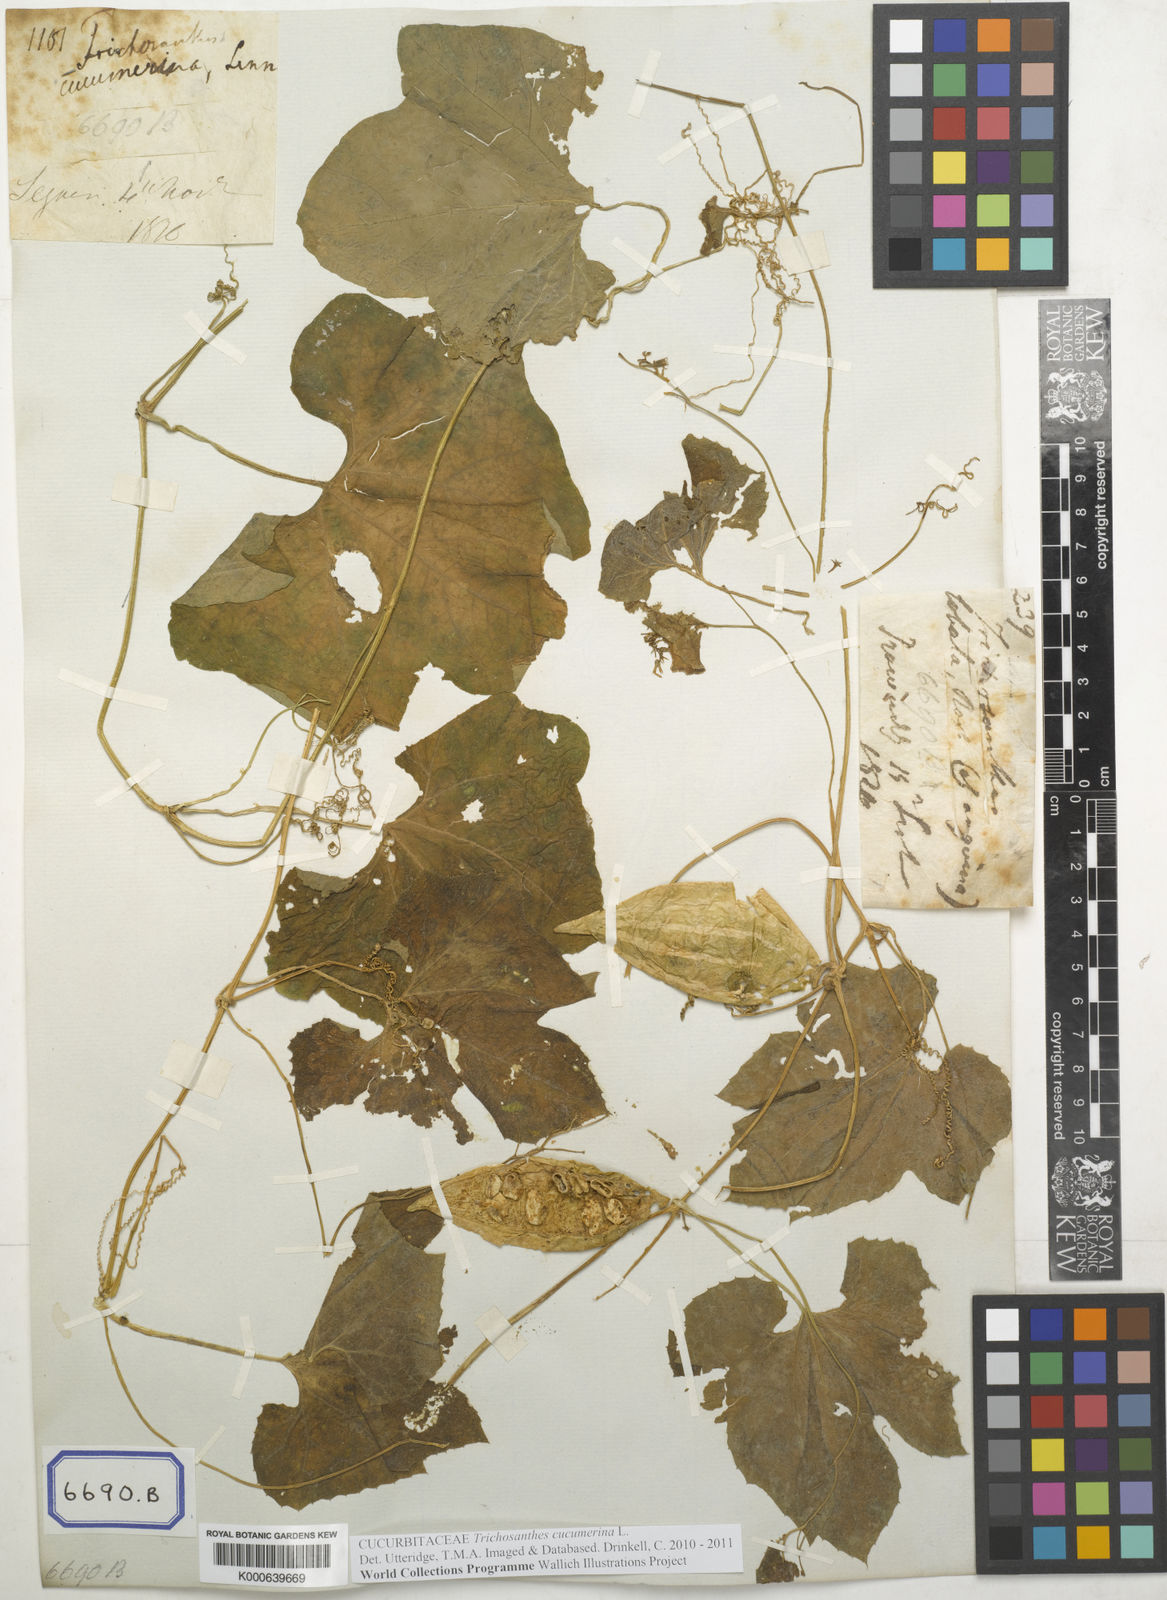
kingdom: Plantae
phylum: Tracheophyta
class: Magnoliopsida
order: Cucurbitales
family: Cucurbitaceae
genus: Trichosanthes
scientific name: Trichosanthes cucumerina
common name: Snakegourd
